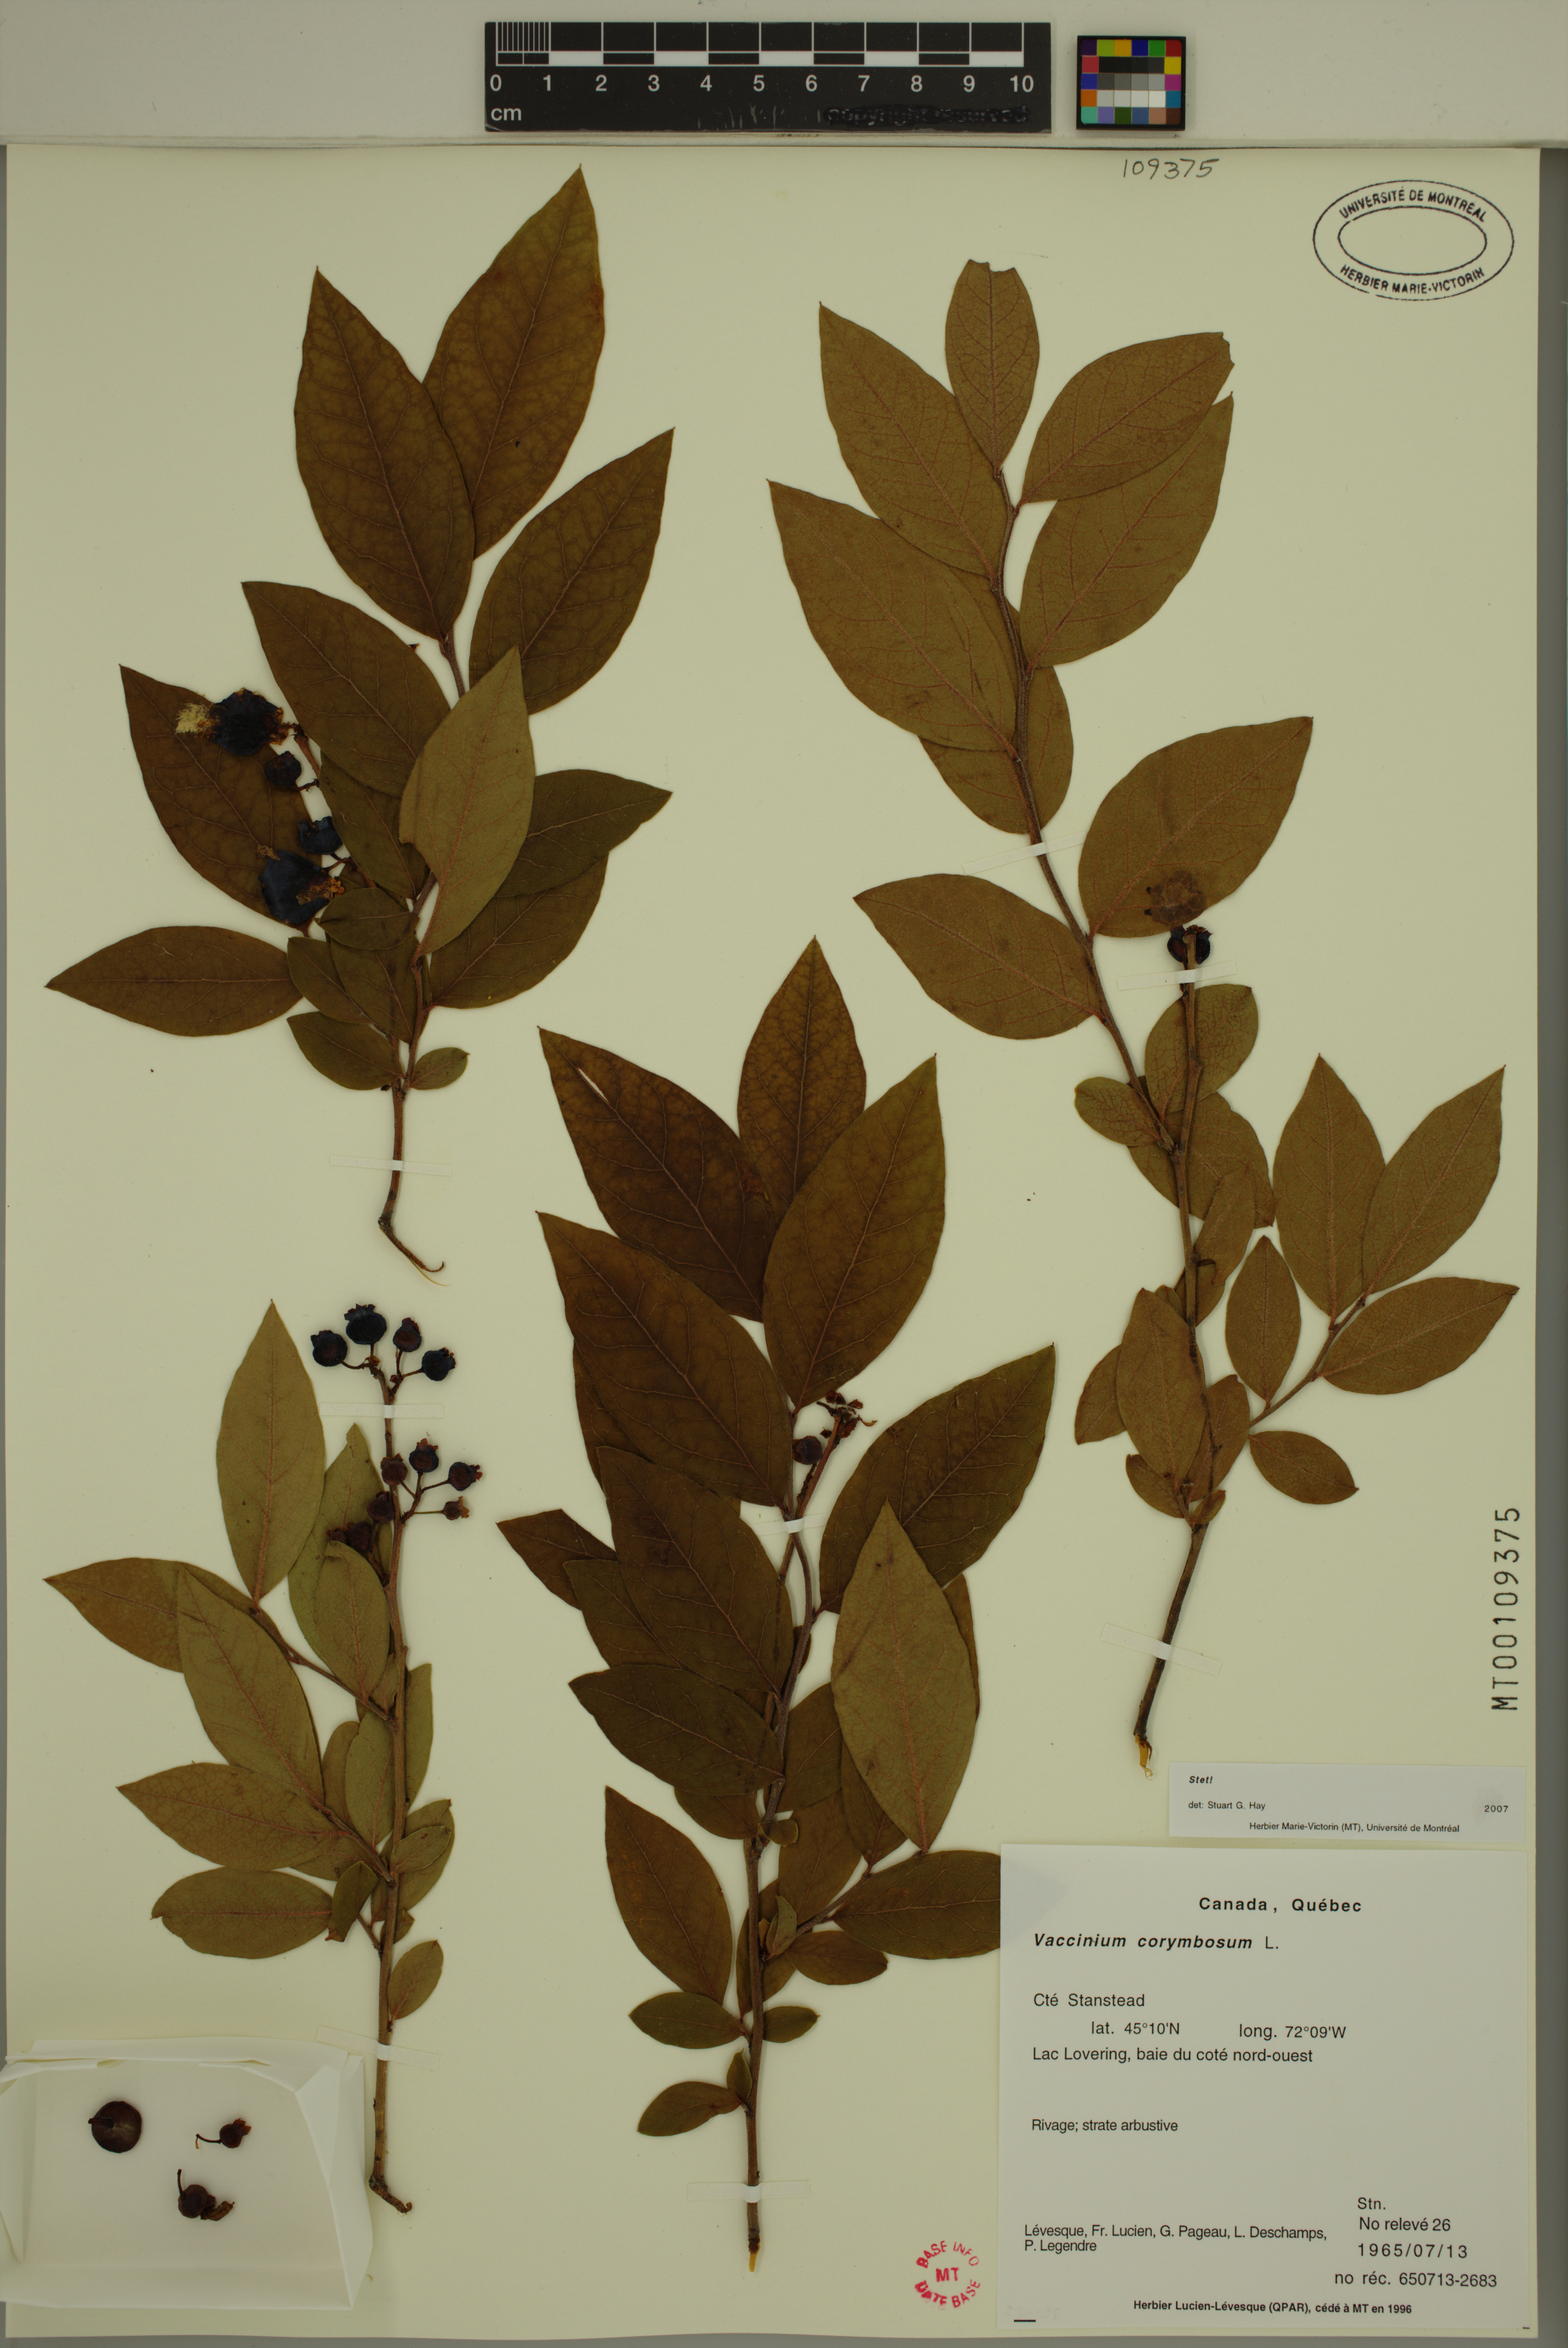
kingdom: Plantae
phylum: Tracheophyta
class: Magnoliopsida
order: Ericales
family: Ericaceae
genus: Vaccinium
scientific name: Vaccinium corymbosum
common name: Blueberry
